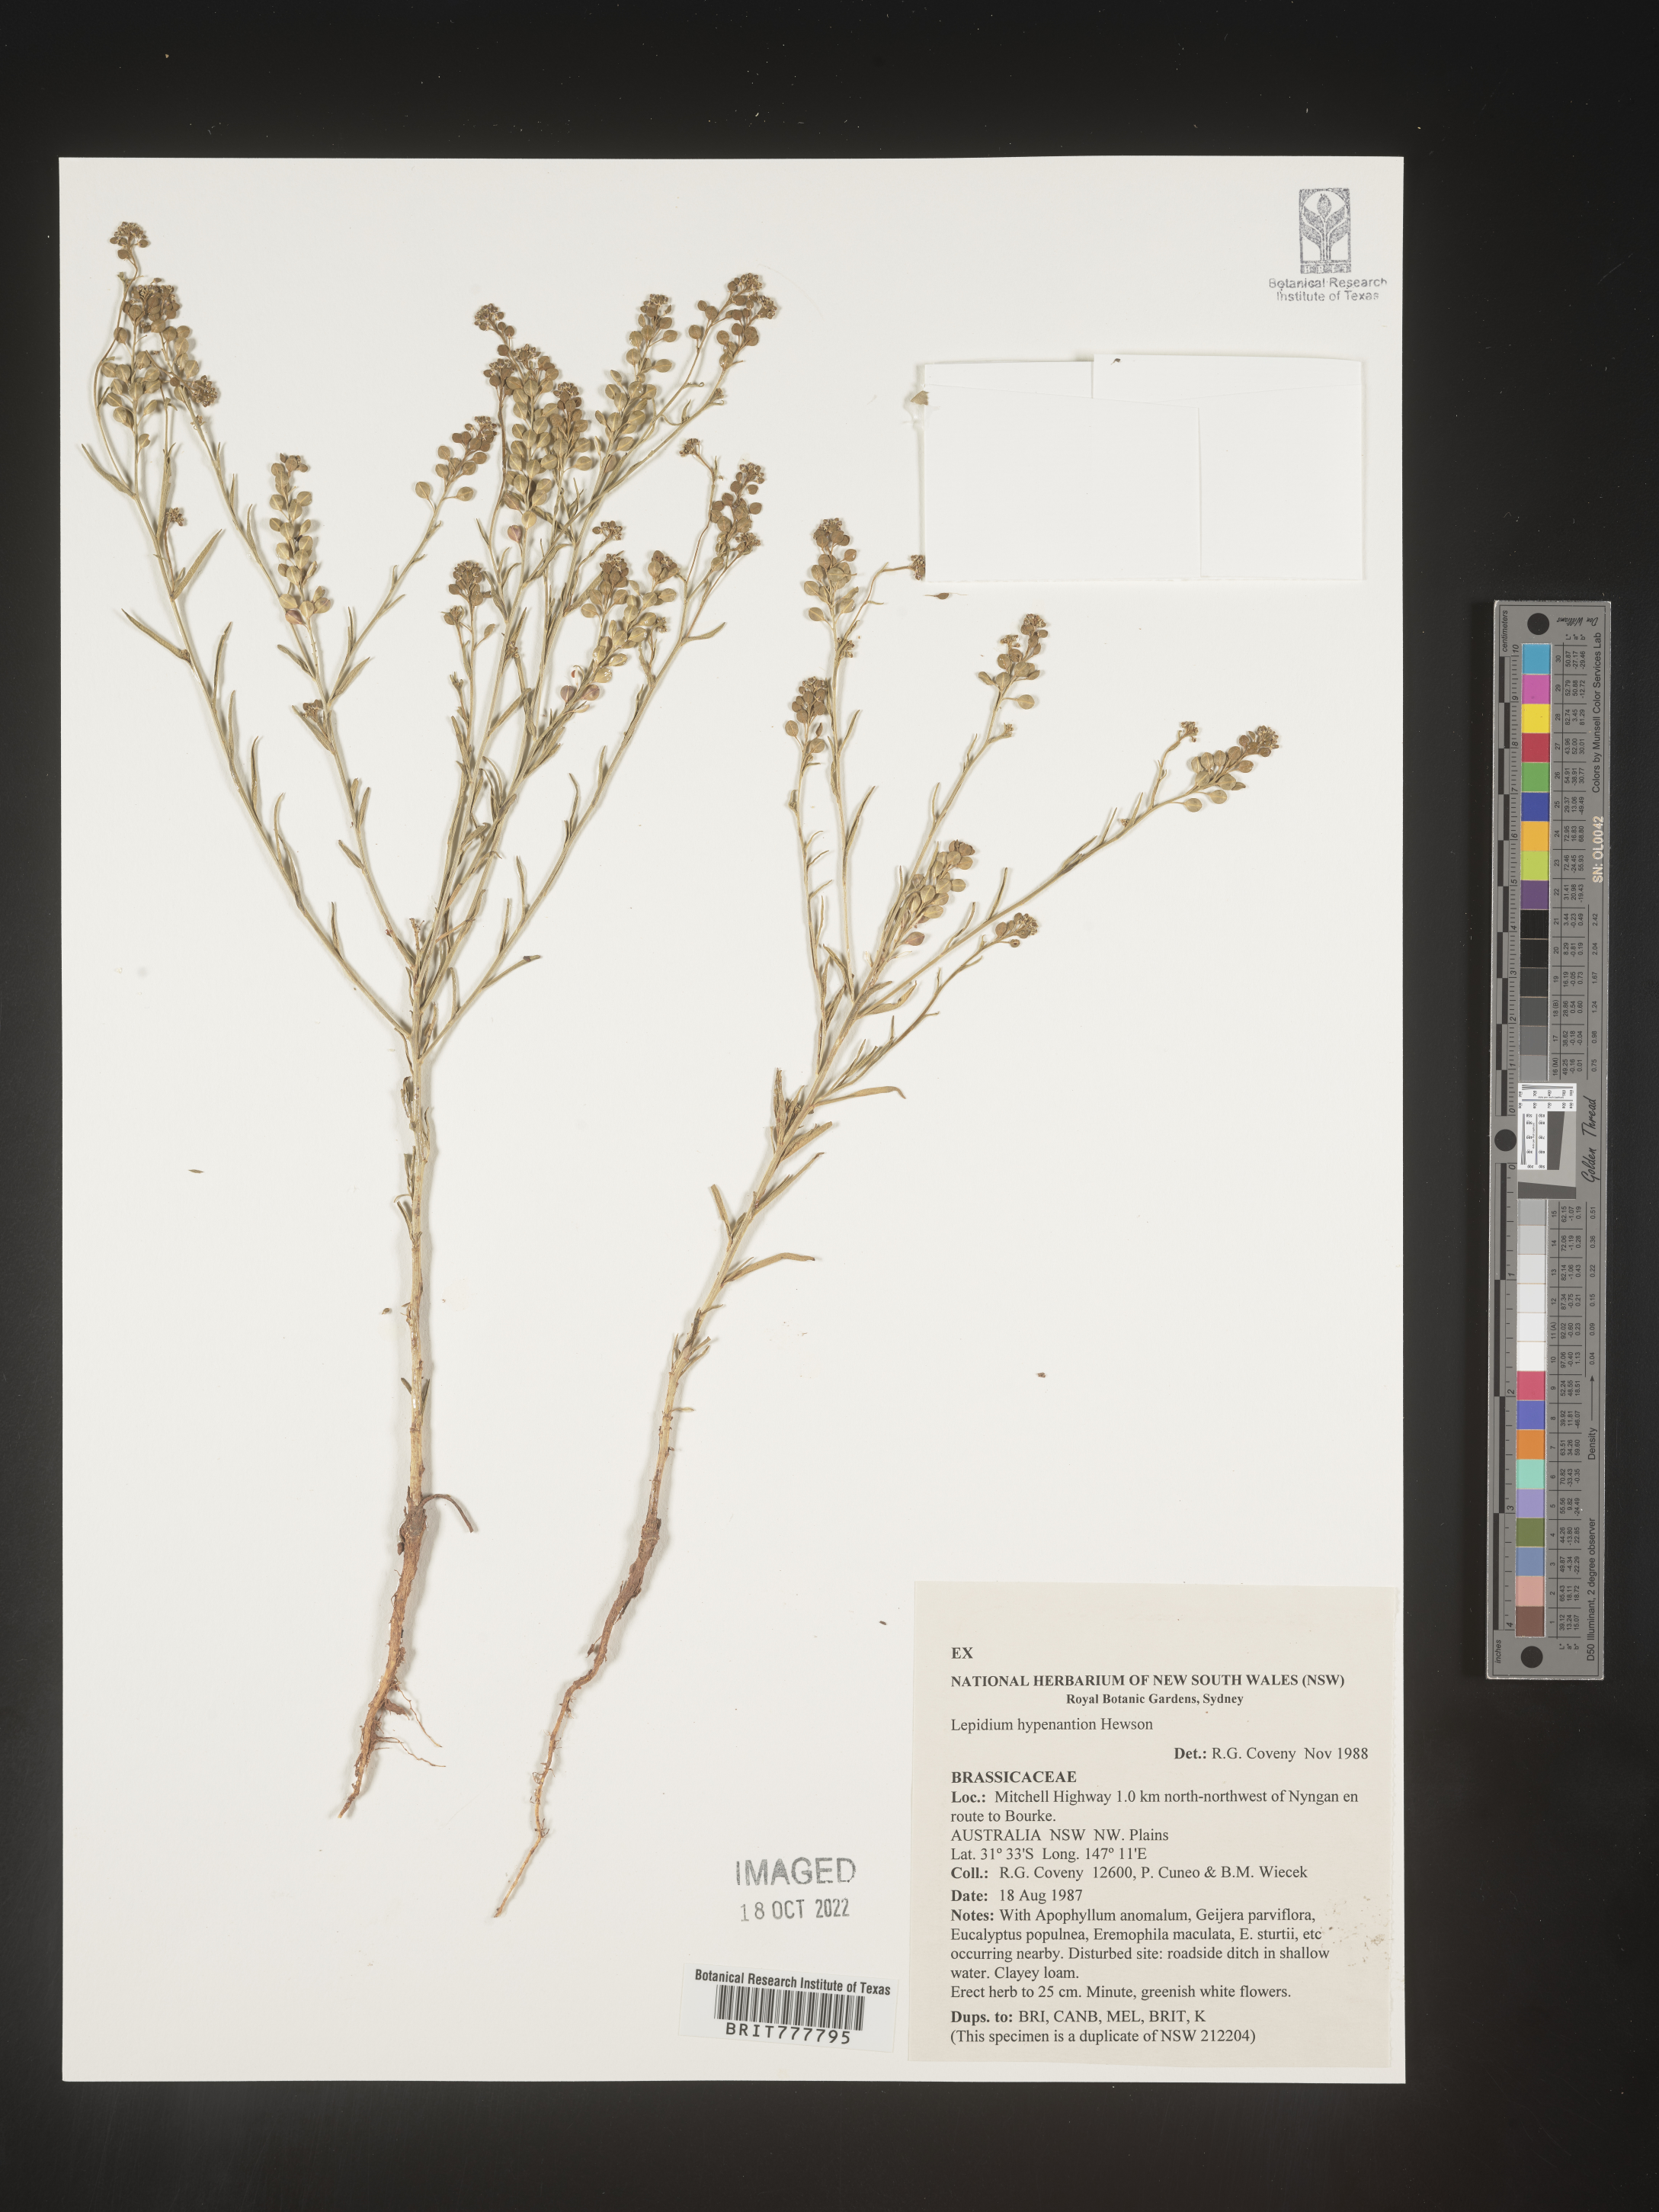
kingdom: Plantae
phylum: Tracheophyta
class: Magnoliopsida
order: Brassicales
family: Brassicaceae
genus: Lepidium
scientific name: Lepidium
